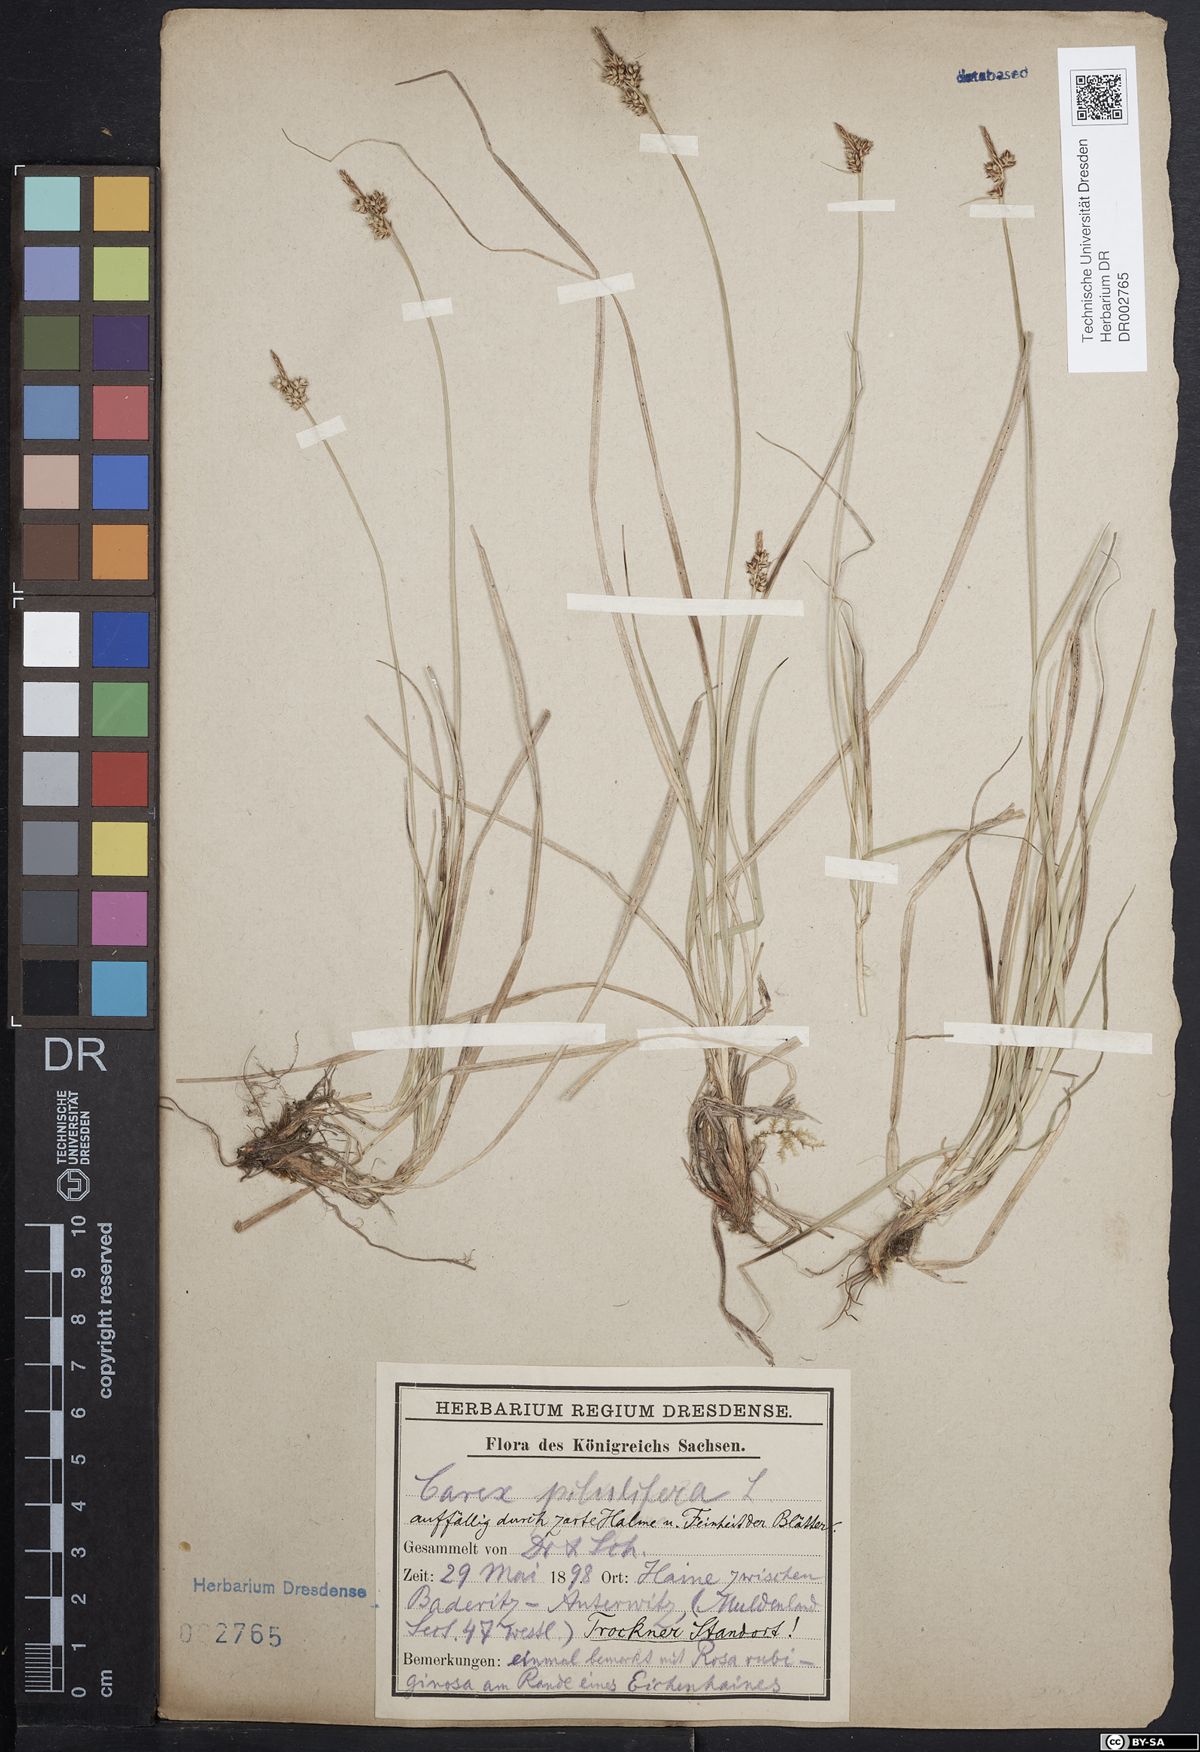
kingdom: Plantae
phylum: Tracheophyta
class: Liliopsida
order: Poales
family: Cyperaceae
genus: Carex
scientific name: Carex caryophyllea
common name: Spring sedge
